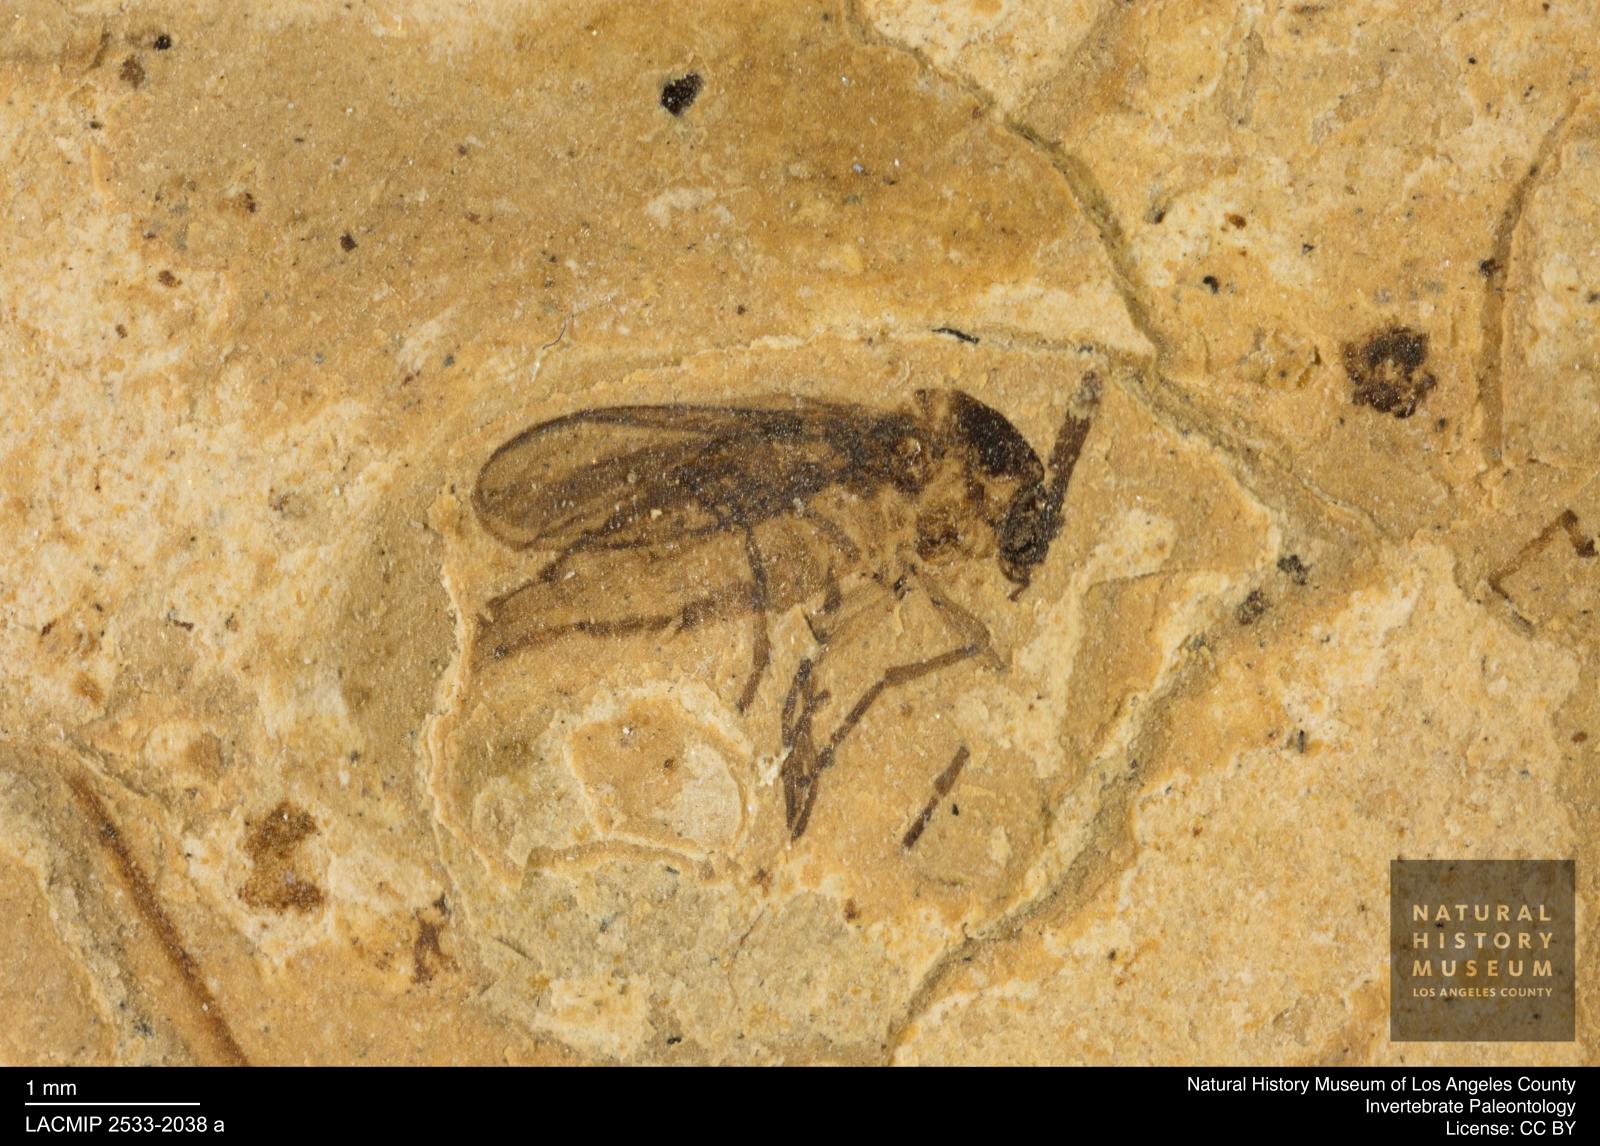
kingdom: Animalia
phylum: Arthropoda
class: Insecta
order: Diptera
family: Sciaridae
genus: Sciara
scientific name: Sciara heydeni
